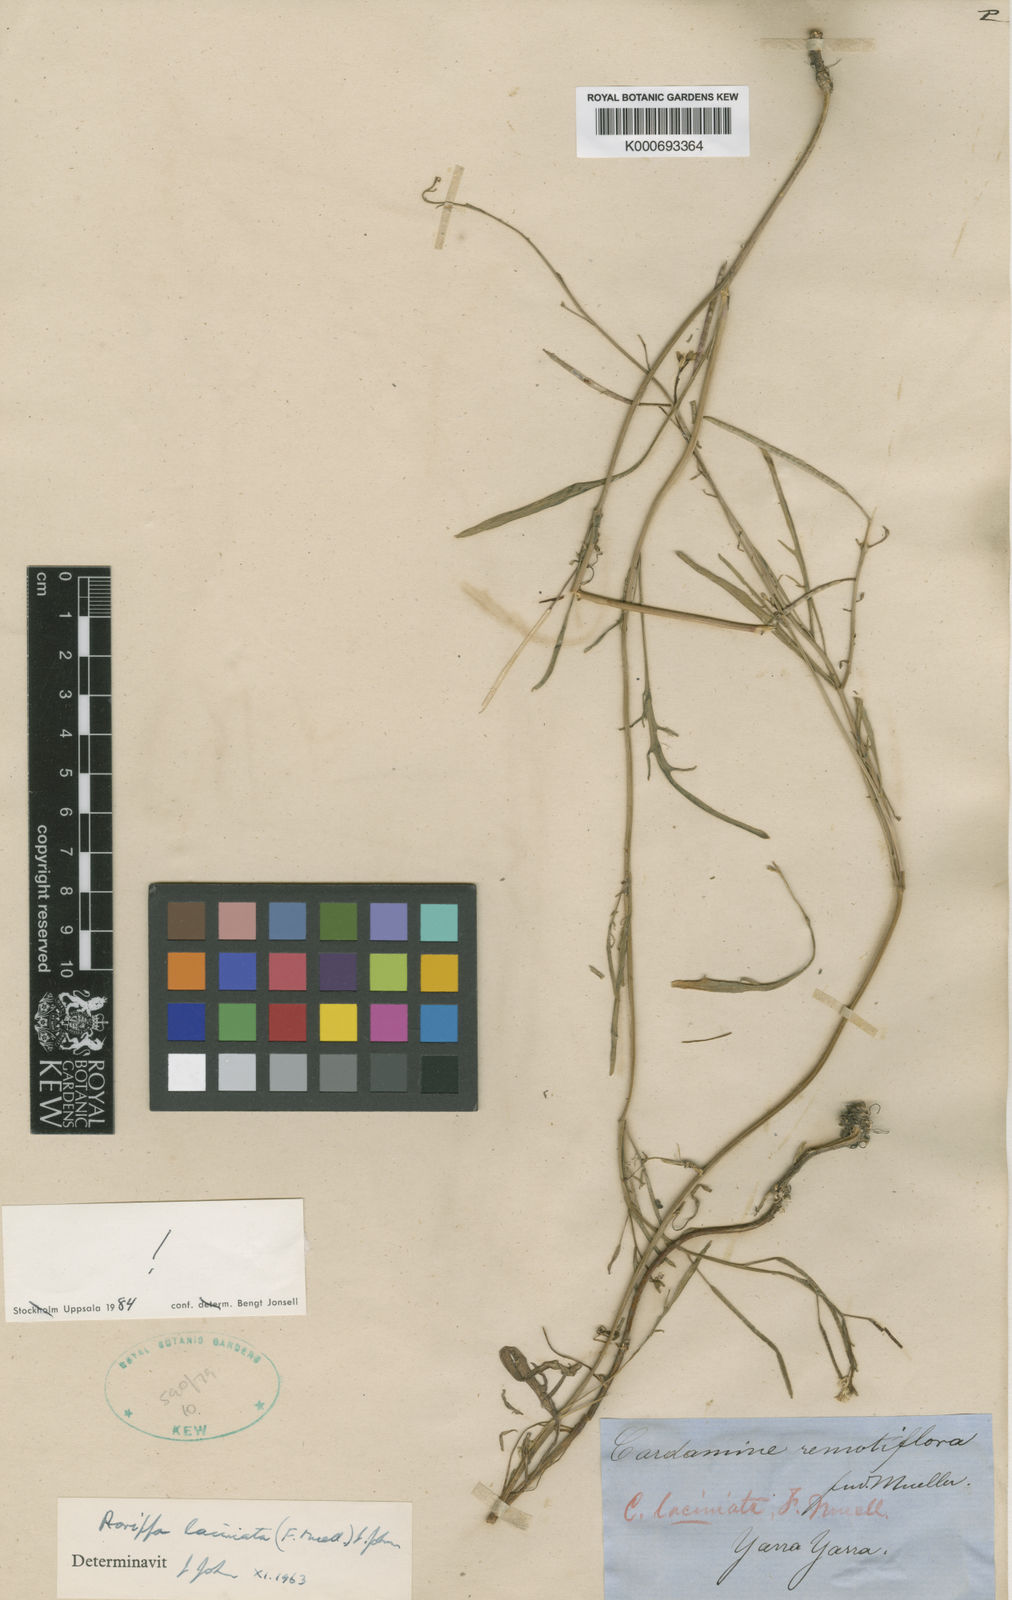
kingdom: Plantae
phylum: Tracheophyta
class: Magnoliopsida
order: Brassicales
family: Brassicaceae
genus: Rorippa
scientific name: Rorippa laciniata
